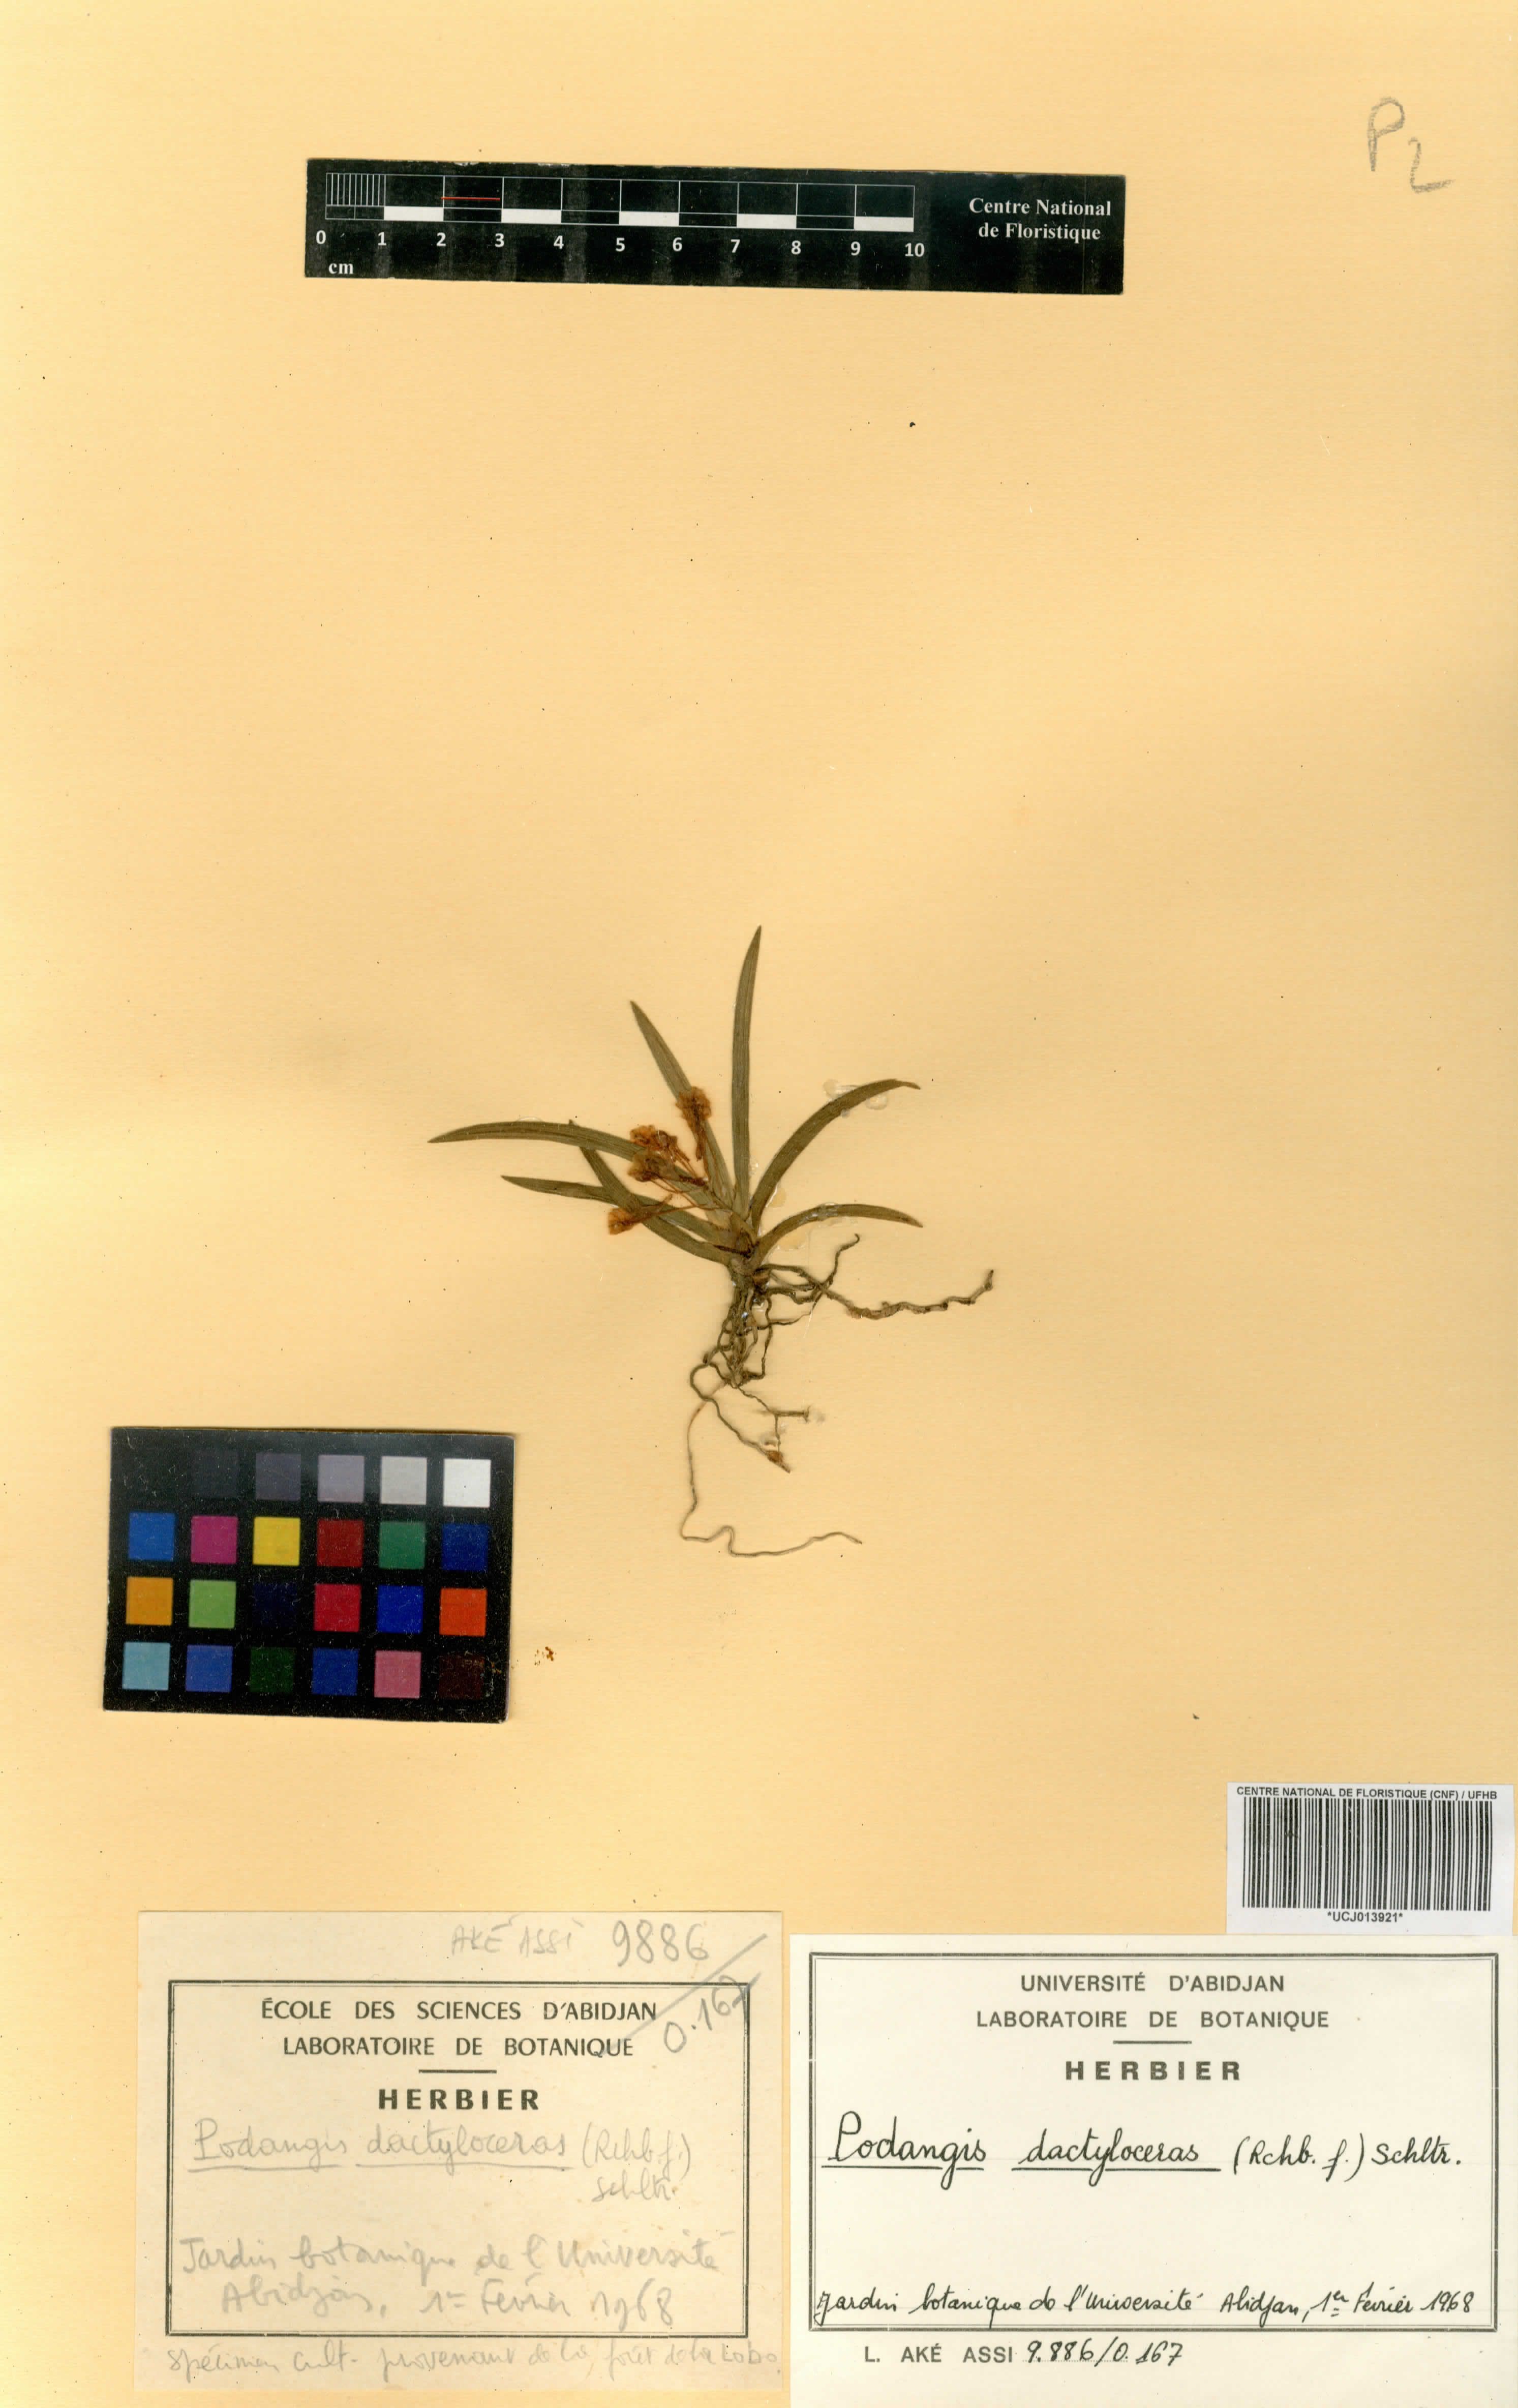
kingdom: Plantae
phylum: Tracheophyta
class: Liliopsida
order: Asparagales
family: Orchidaceae
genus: Podangis
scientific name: Podangis dactyloceras
